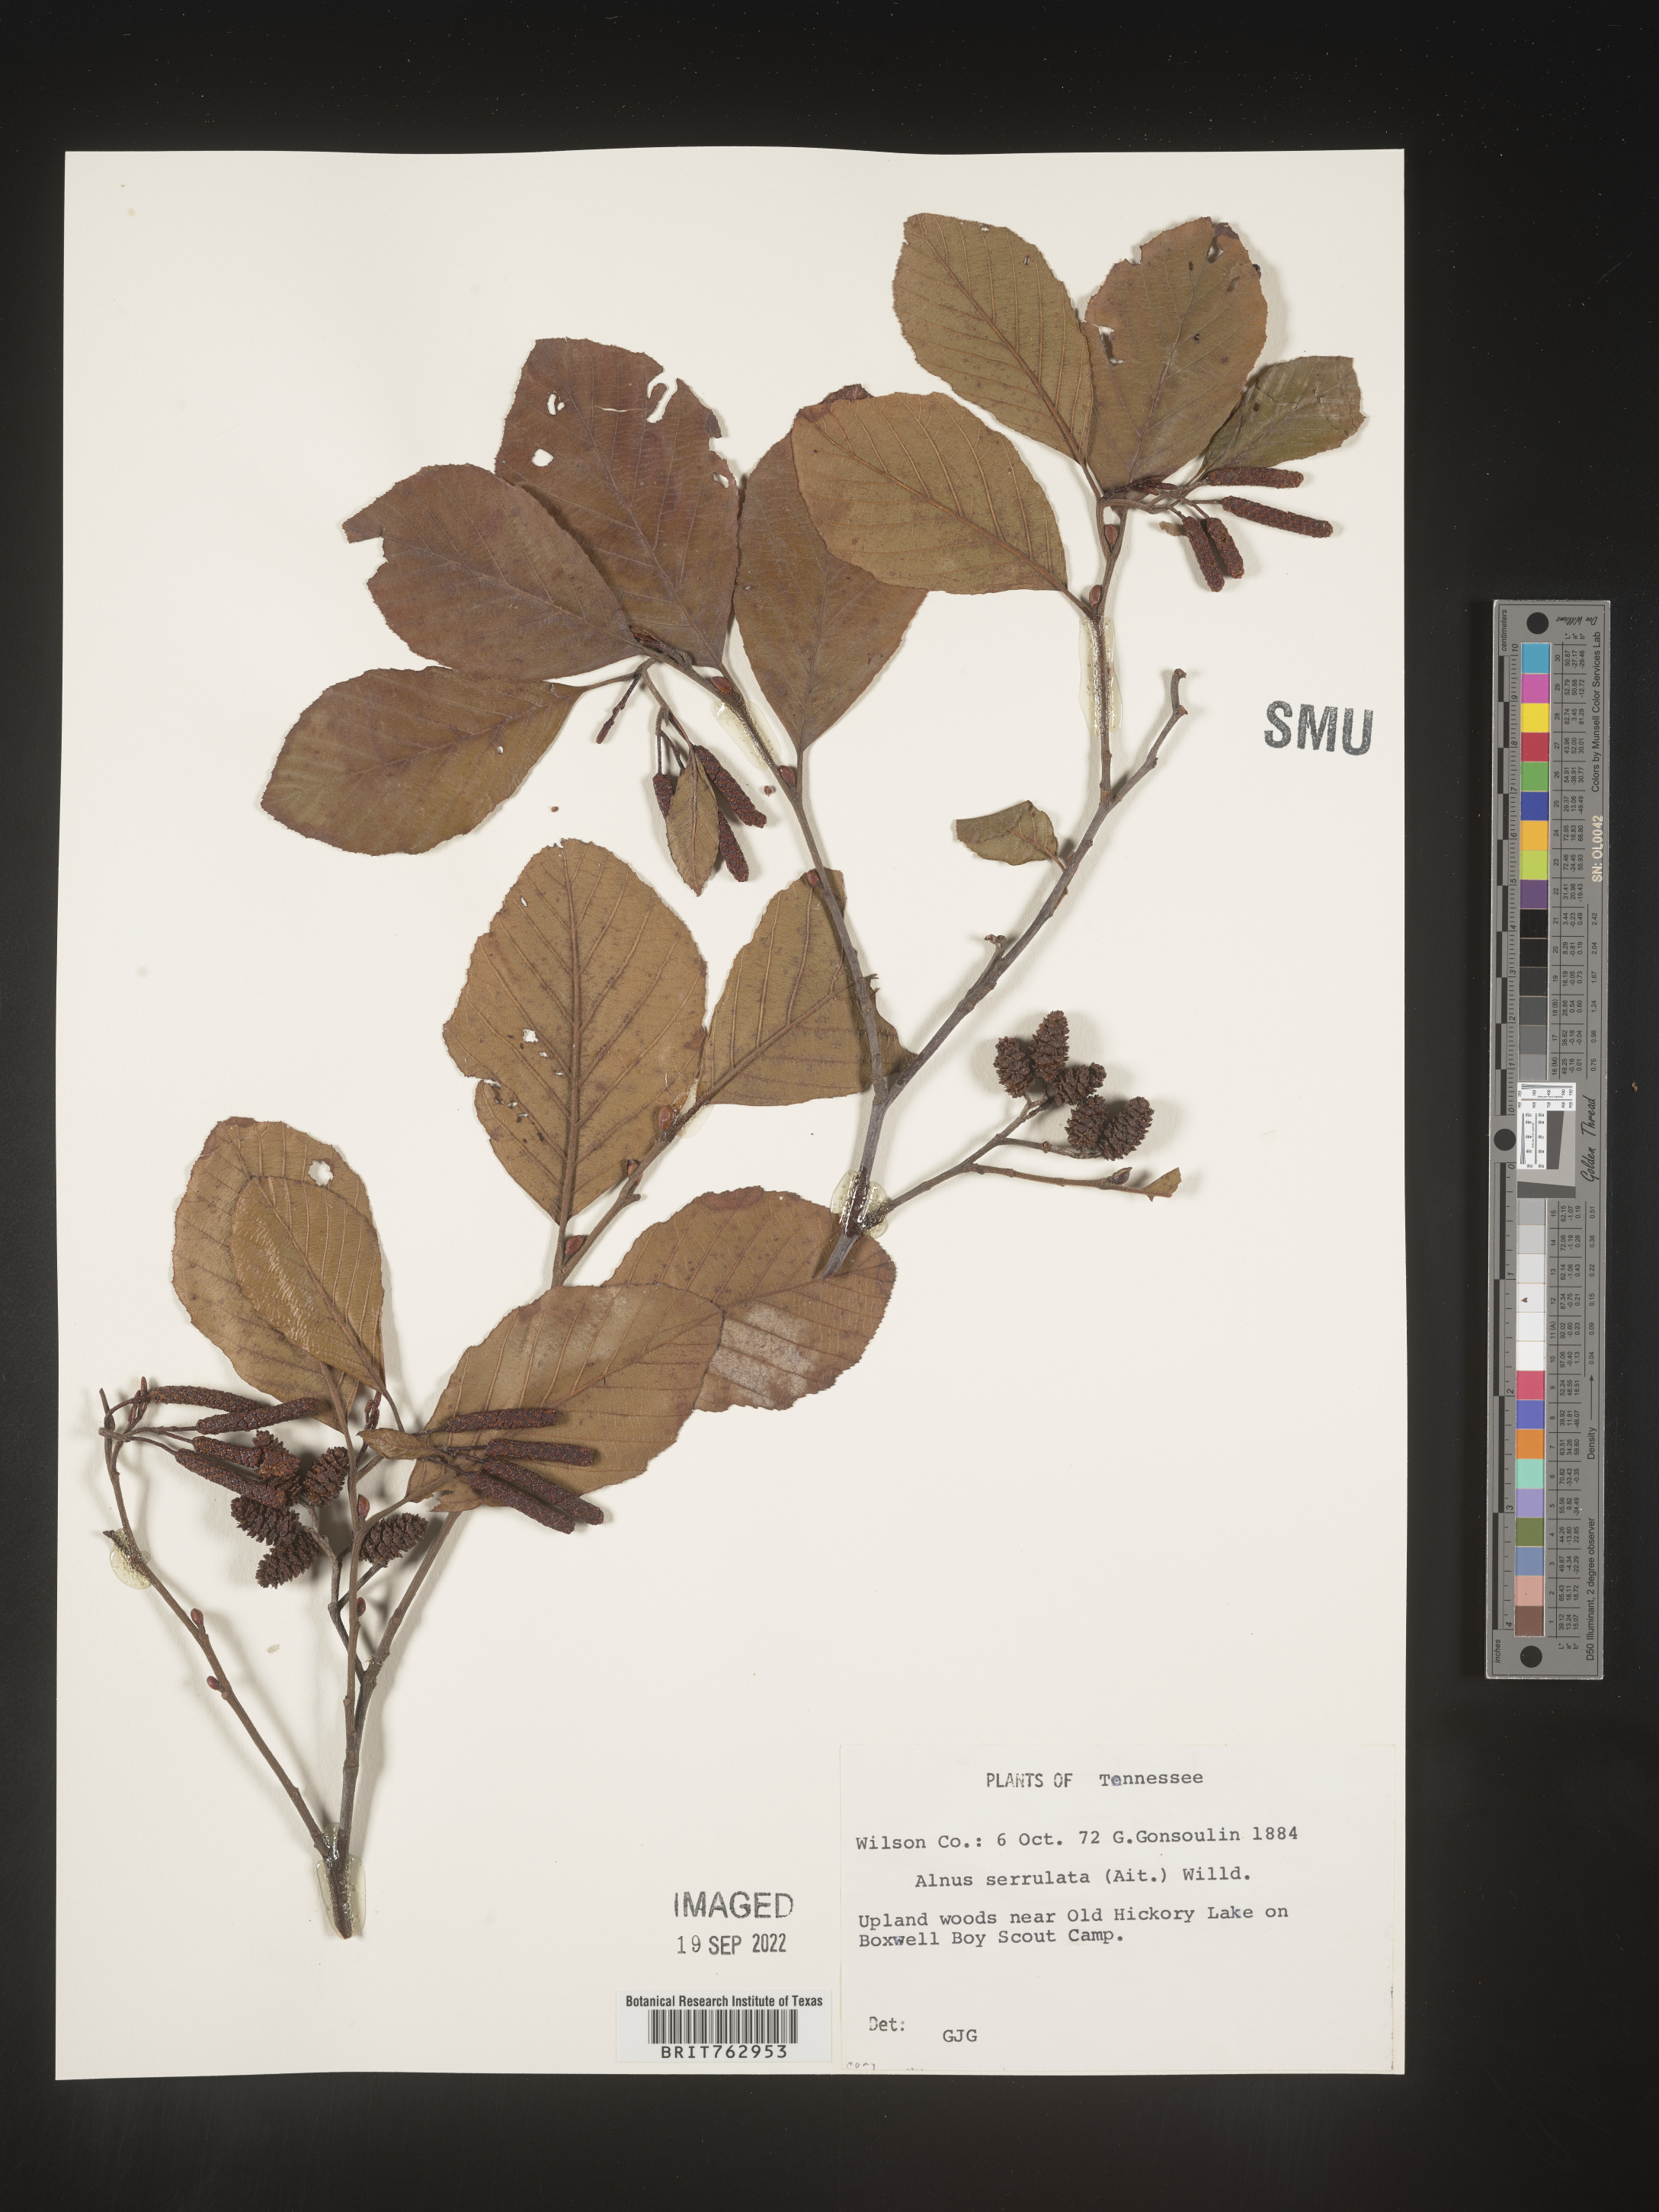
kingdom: Plantae
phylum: Tracheophyta
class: Magnoliopsida
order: Fagales
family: Betulaceae
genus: Alnus
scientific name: Alnus serrulata
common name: Hazel alder
